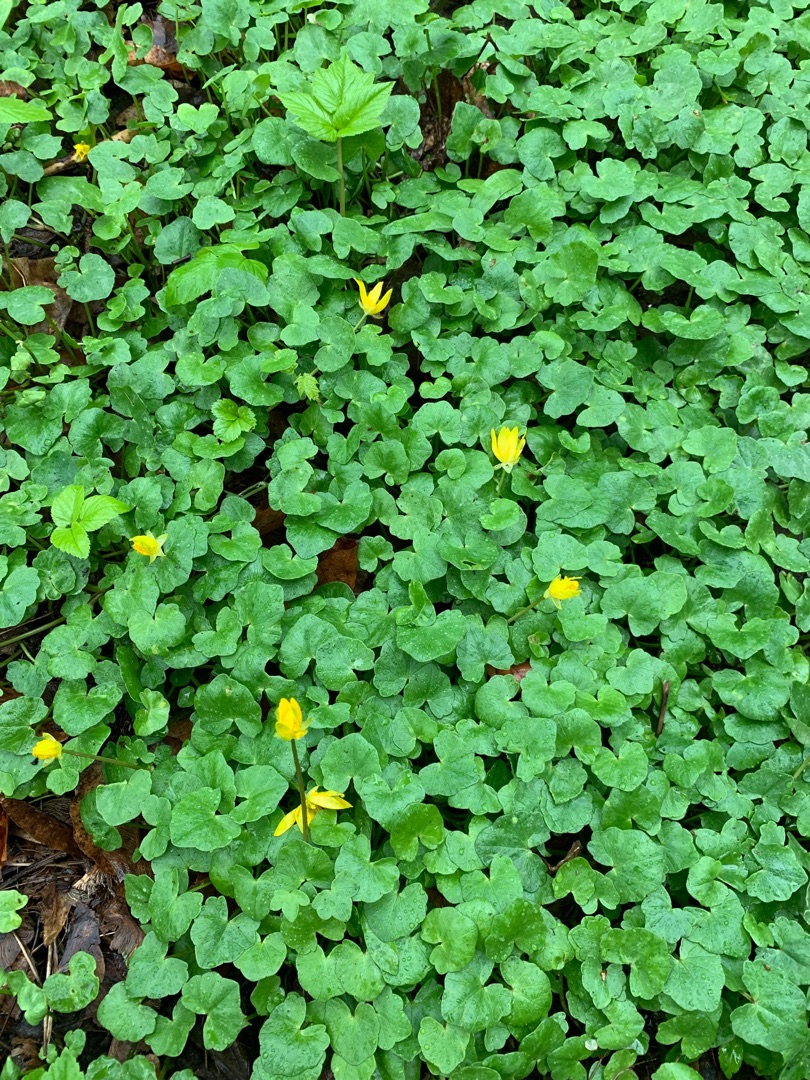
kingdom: Plantae
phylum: Tracheophyta
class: Magnoliopsida
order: Ranunculales
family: Ranunculaceae
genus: Ficaria
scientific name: Ficaria verna
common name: Vorterod
